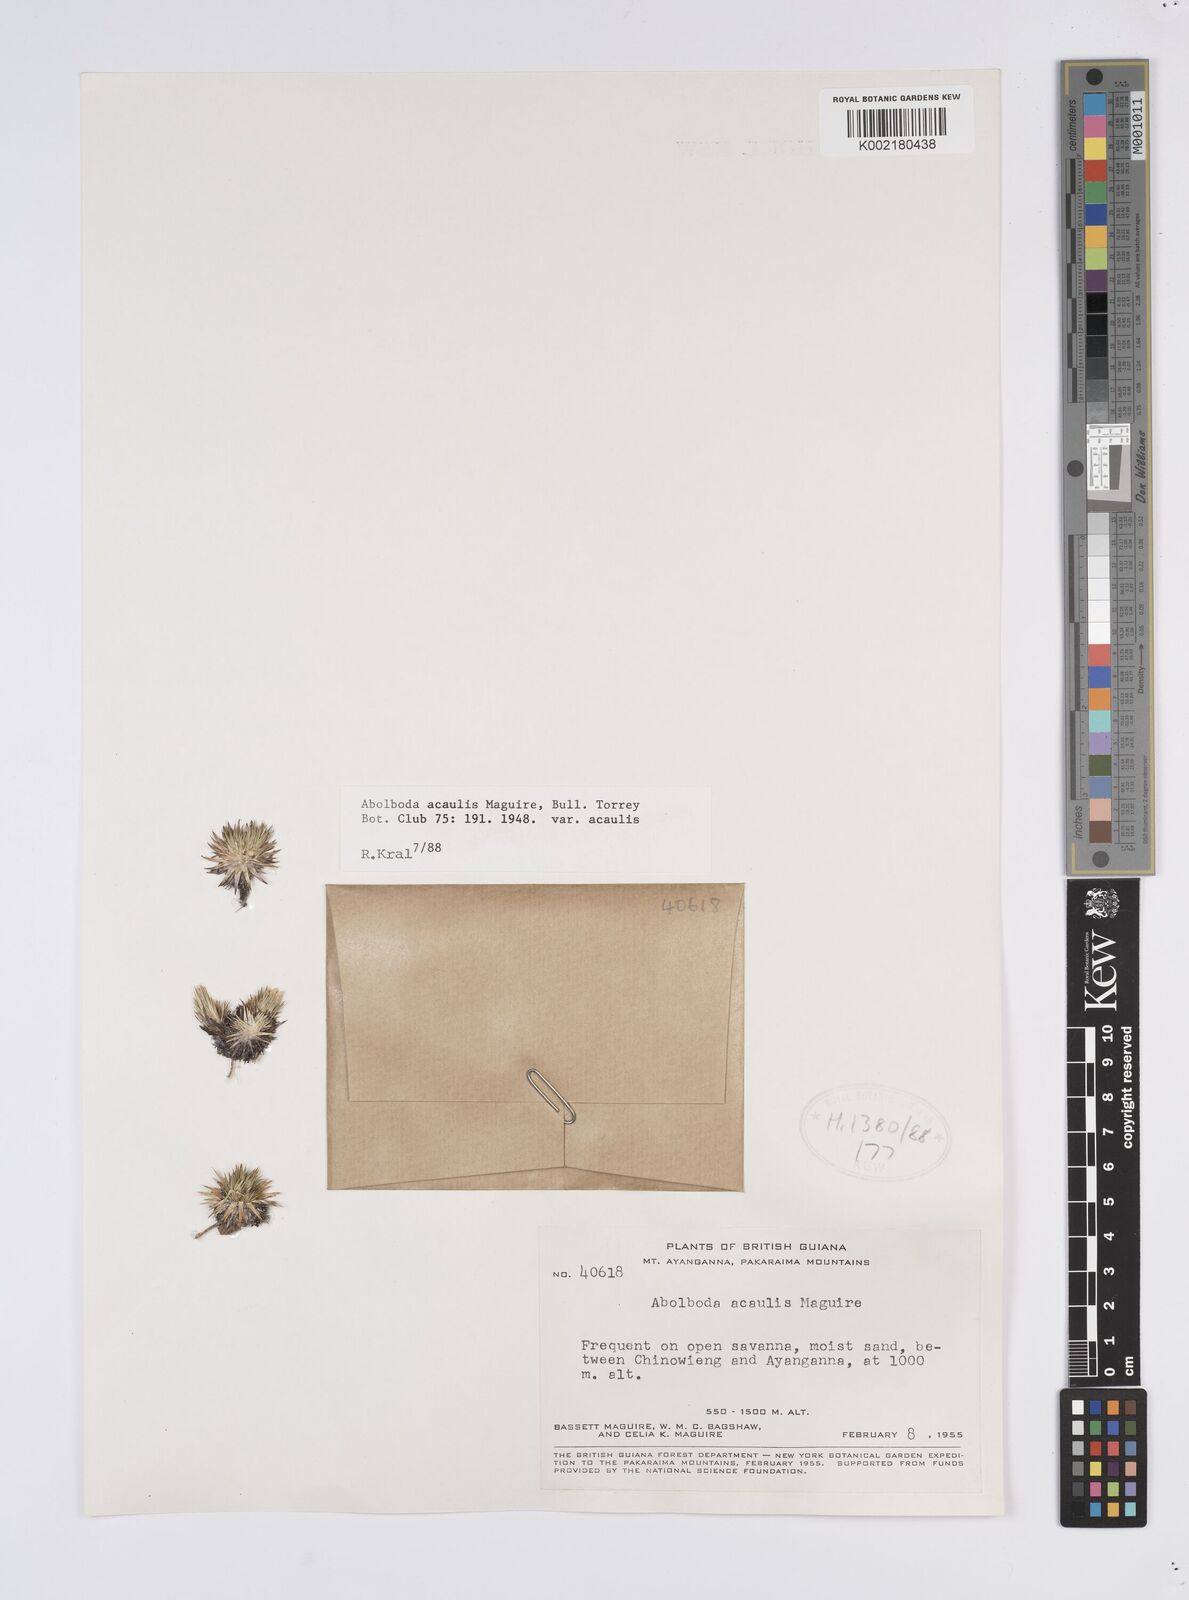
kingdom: Plantae
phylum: Tracheophyta
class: Liliopsida
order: Poales
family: Xyridaceae
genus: Abolboda
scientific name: Abolboda acaulis
